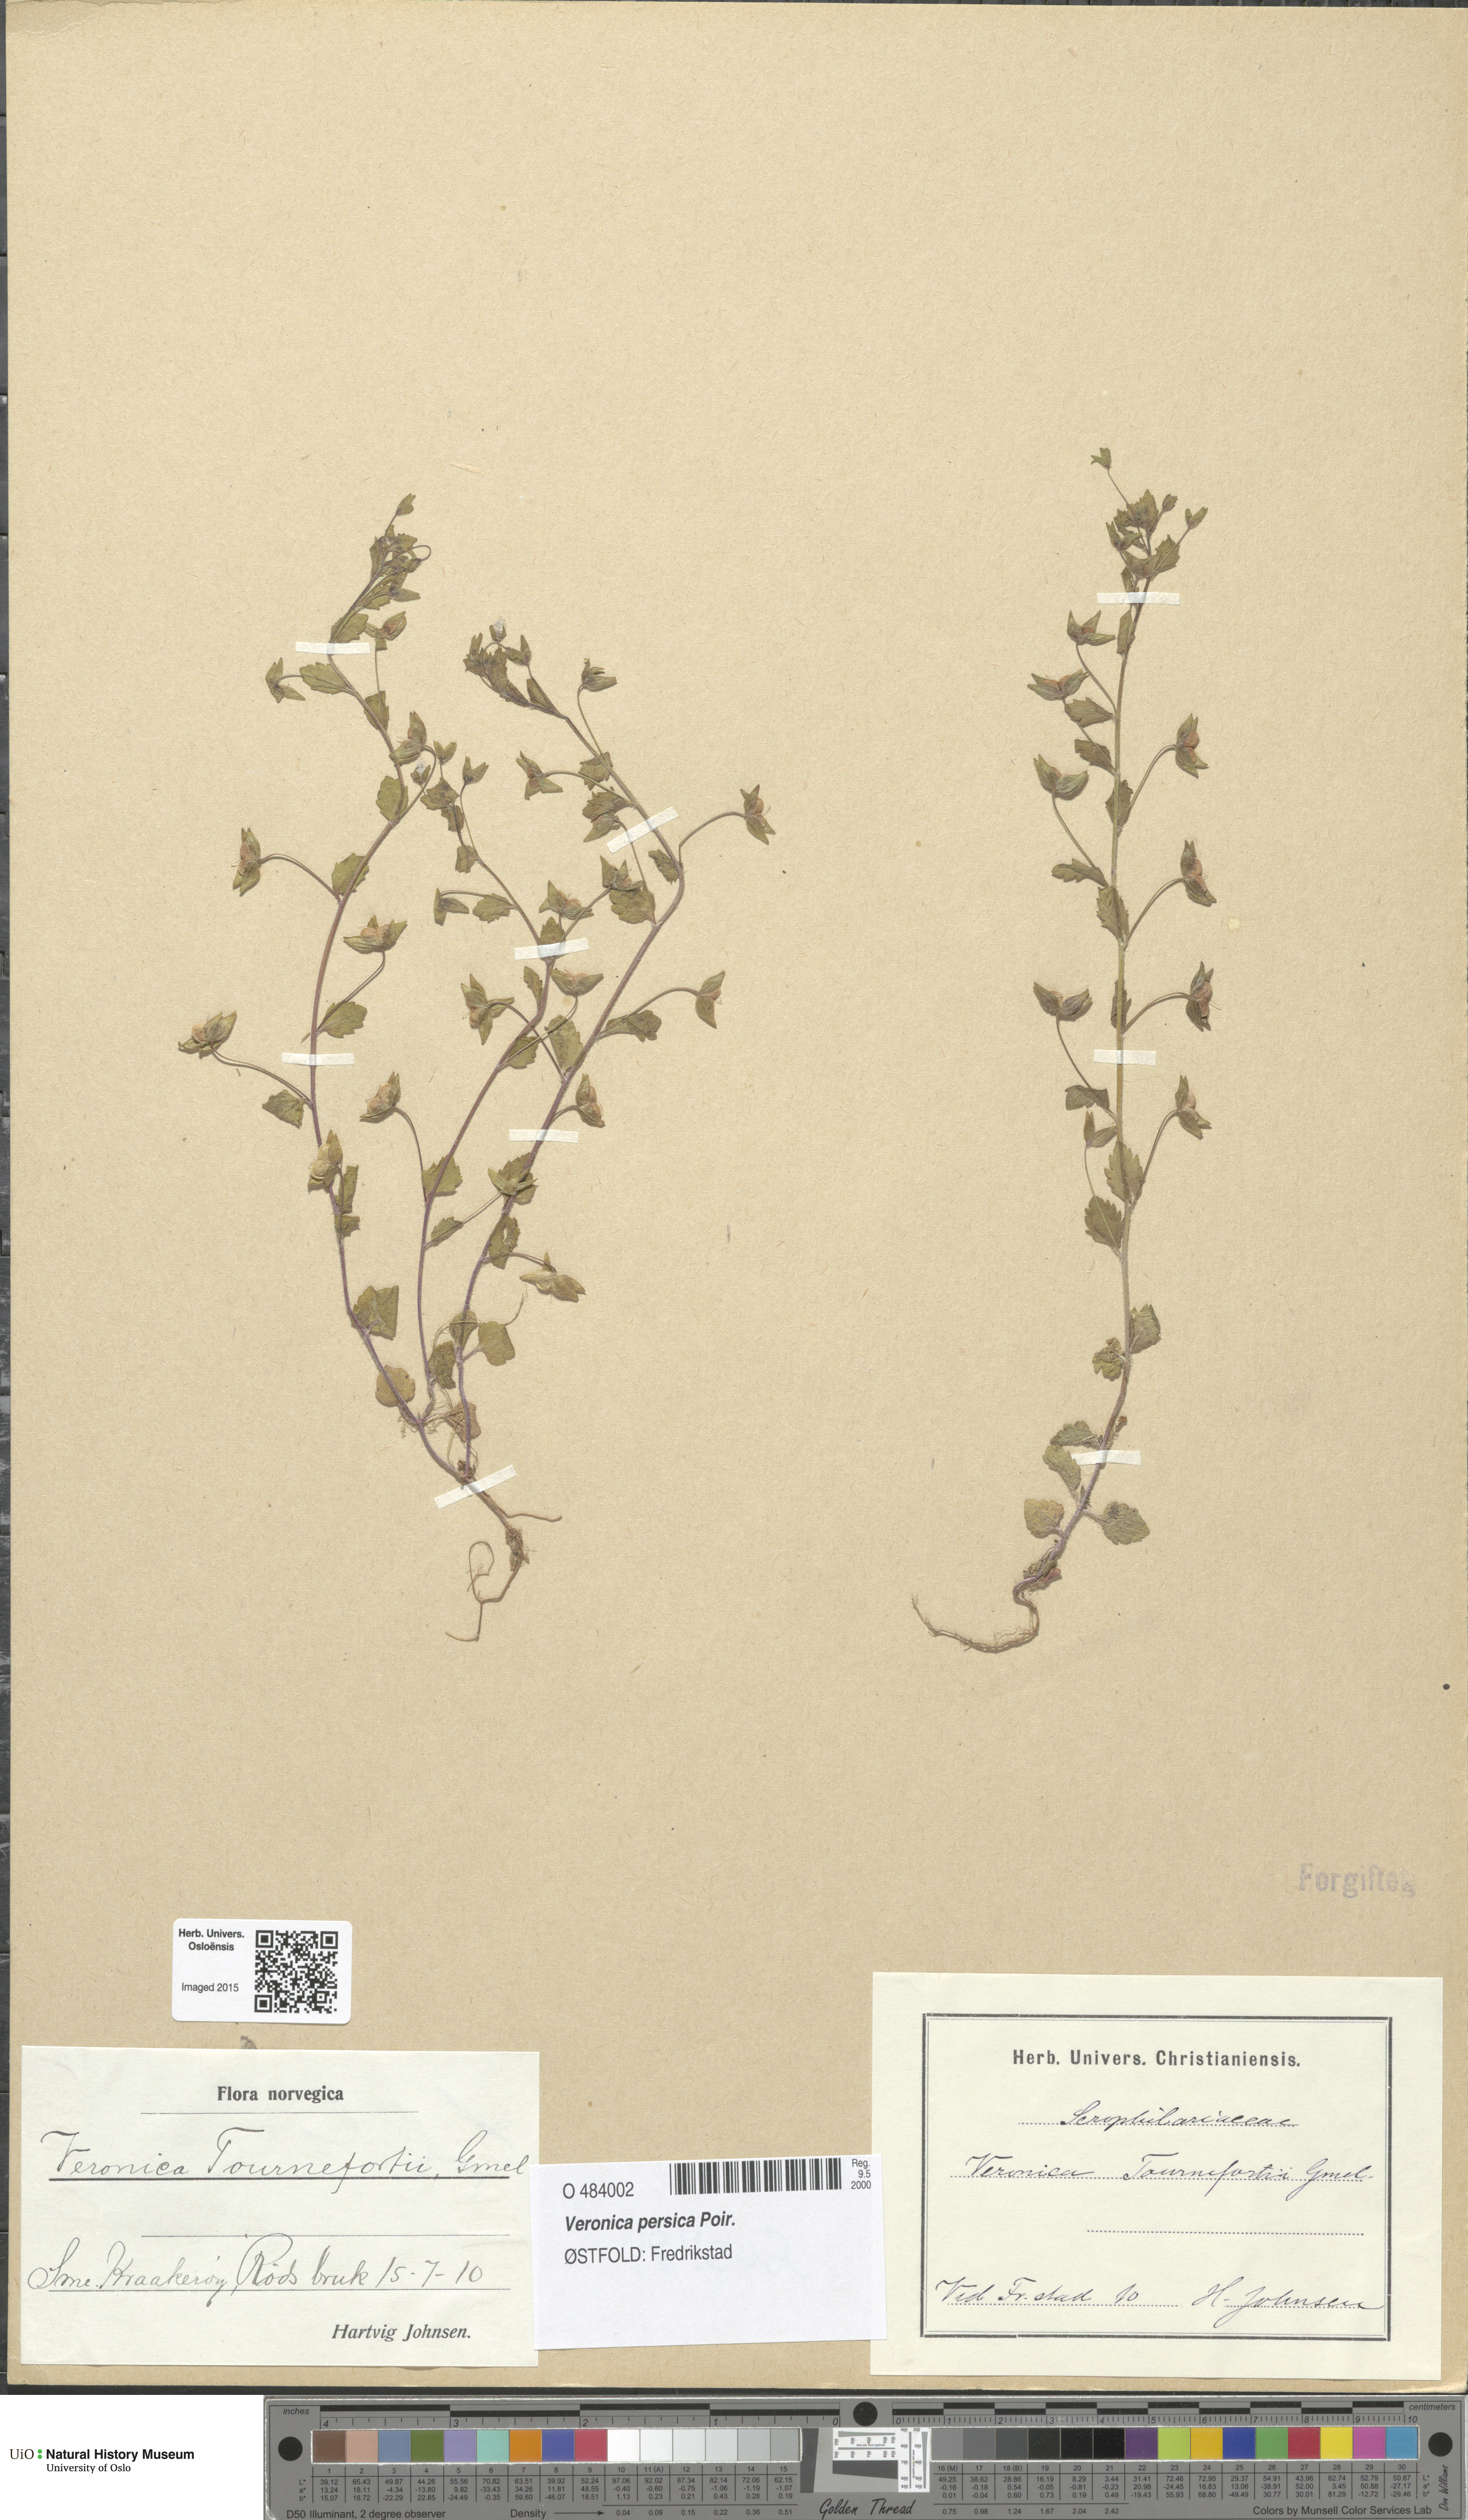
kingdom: Plantae
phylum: Tracheophyta
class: Magnoliopsida
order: Lamiales
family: Plantaginaceae
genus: Veronica
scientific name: Veronica persica
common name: Common field-speedwell
